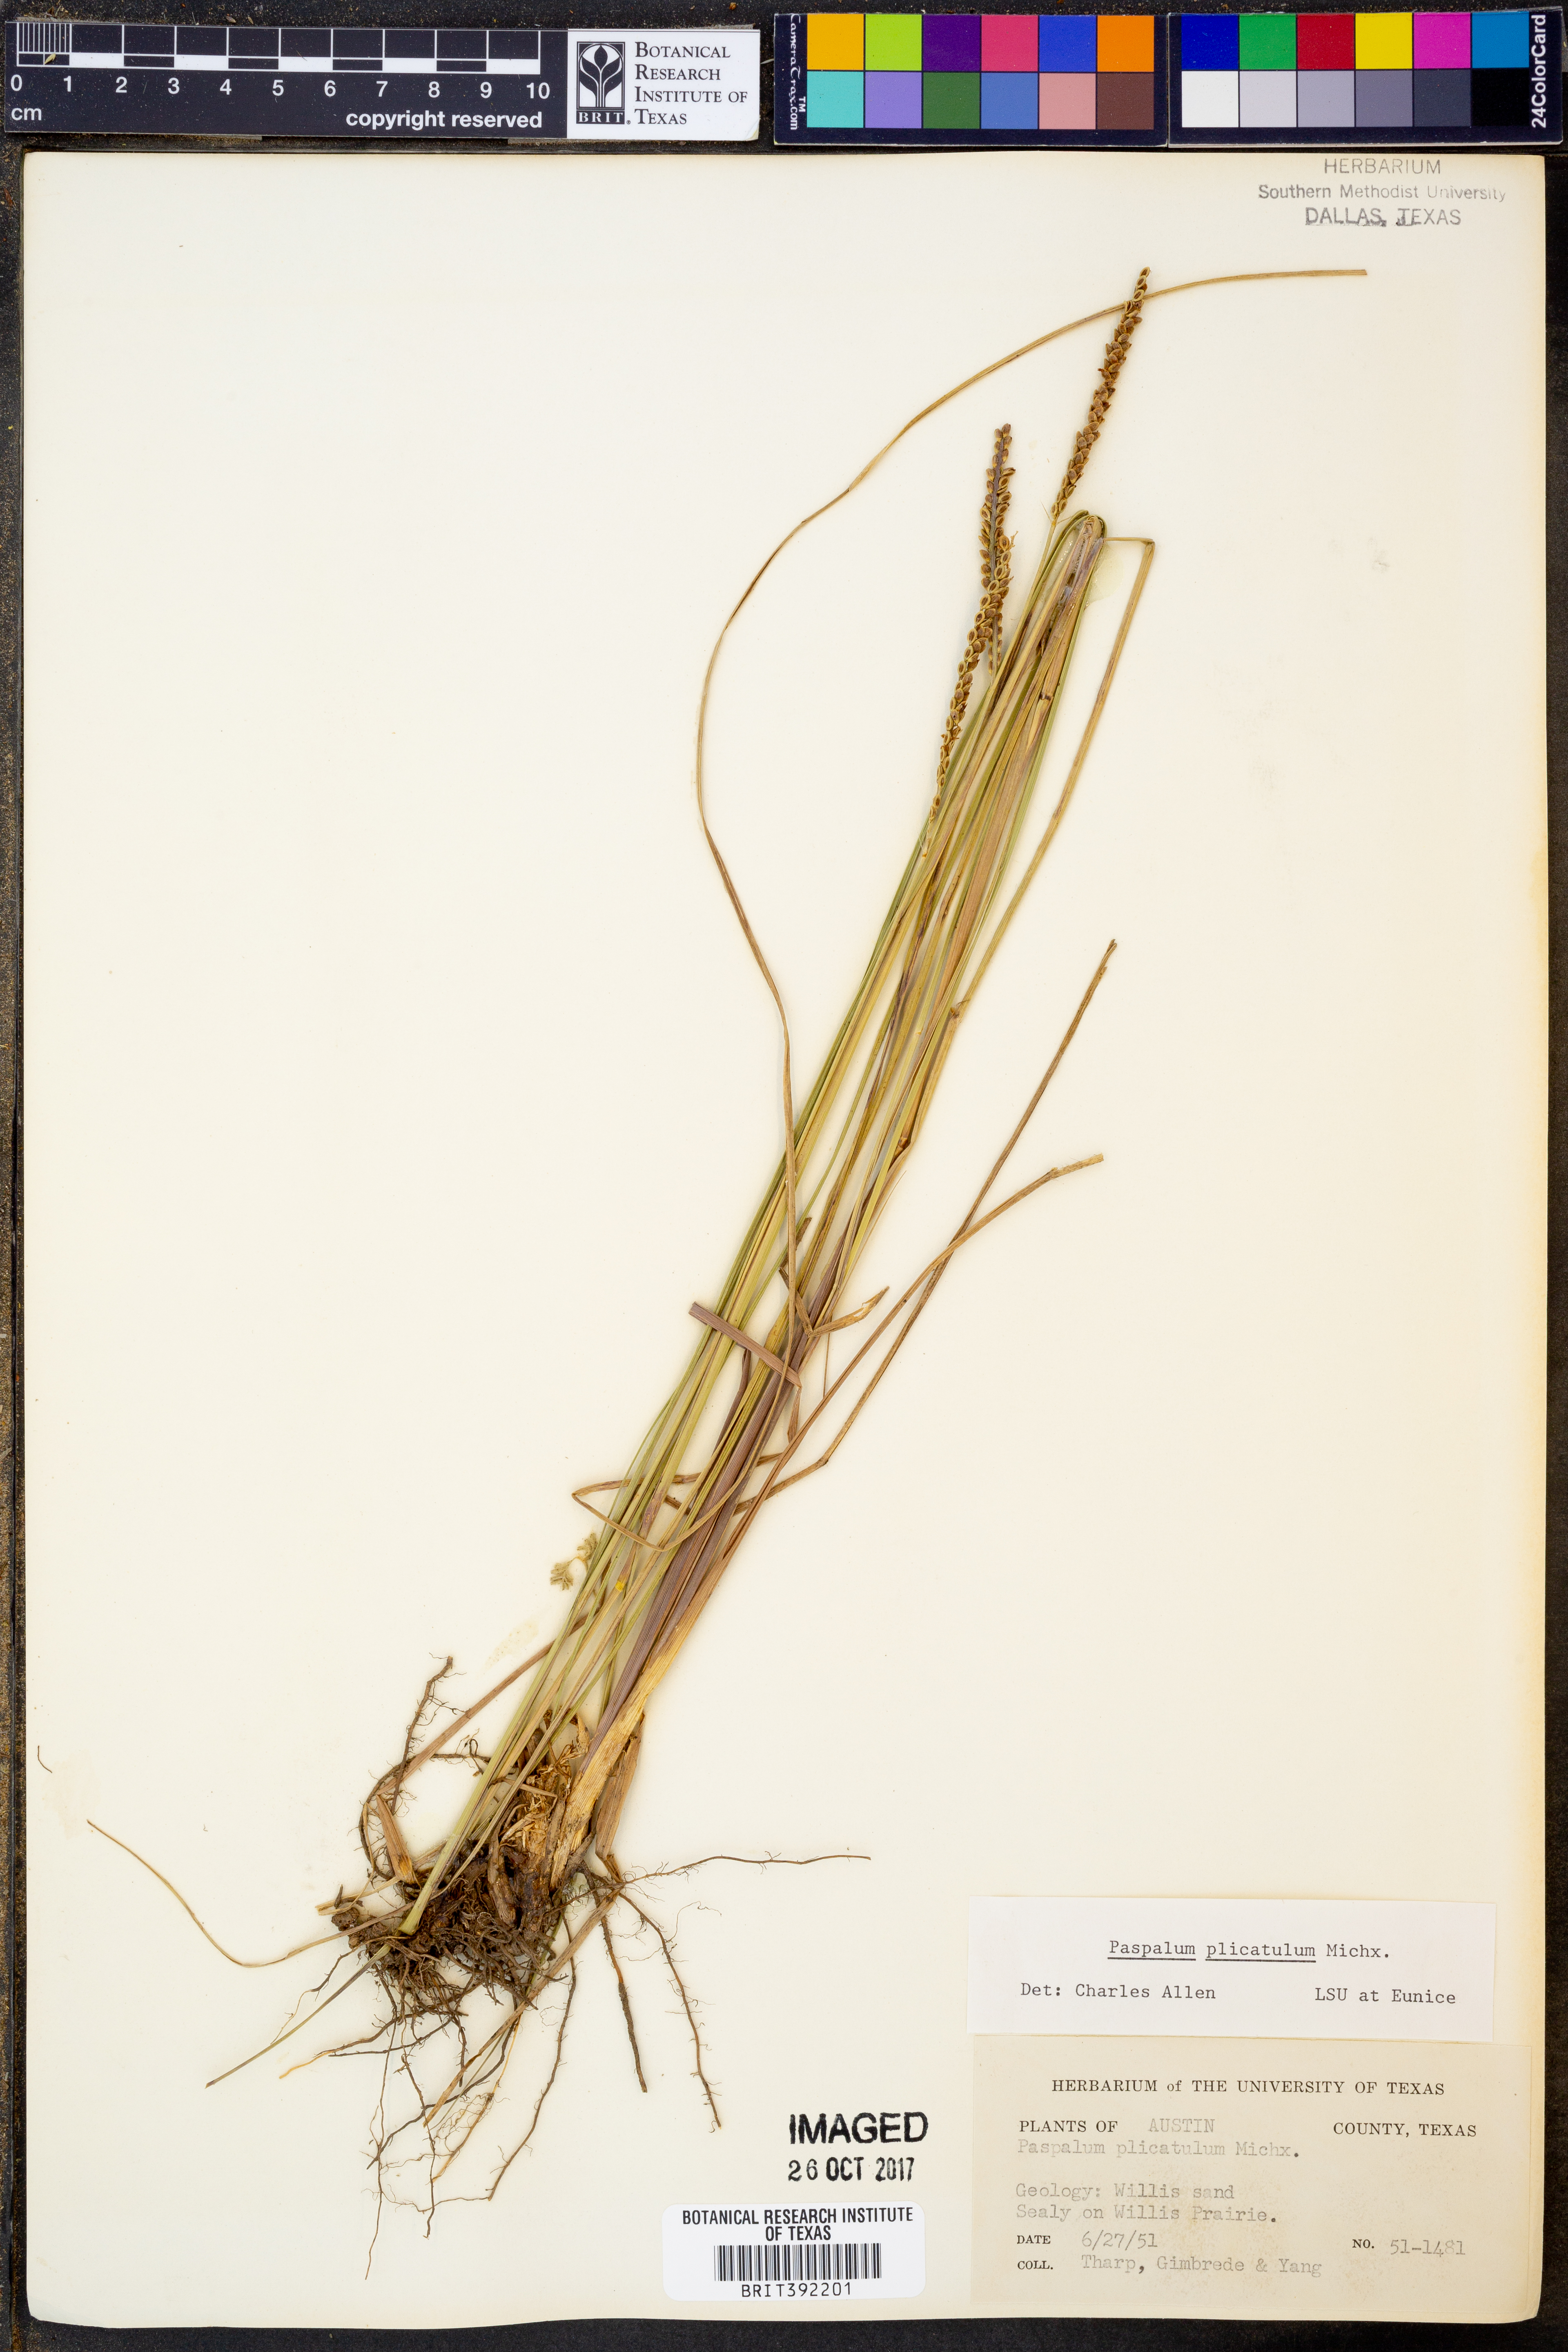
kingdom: Plantae
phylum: Tracheophyta
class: Liliopsida
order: Poales
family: Poaceae
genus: Paspalum
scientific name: Paspalum plicatulum
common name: Top paspalum
